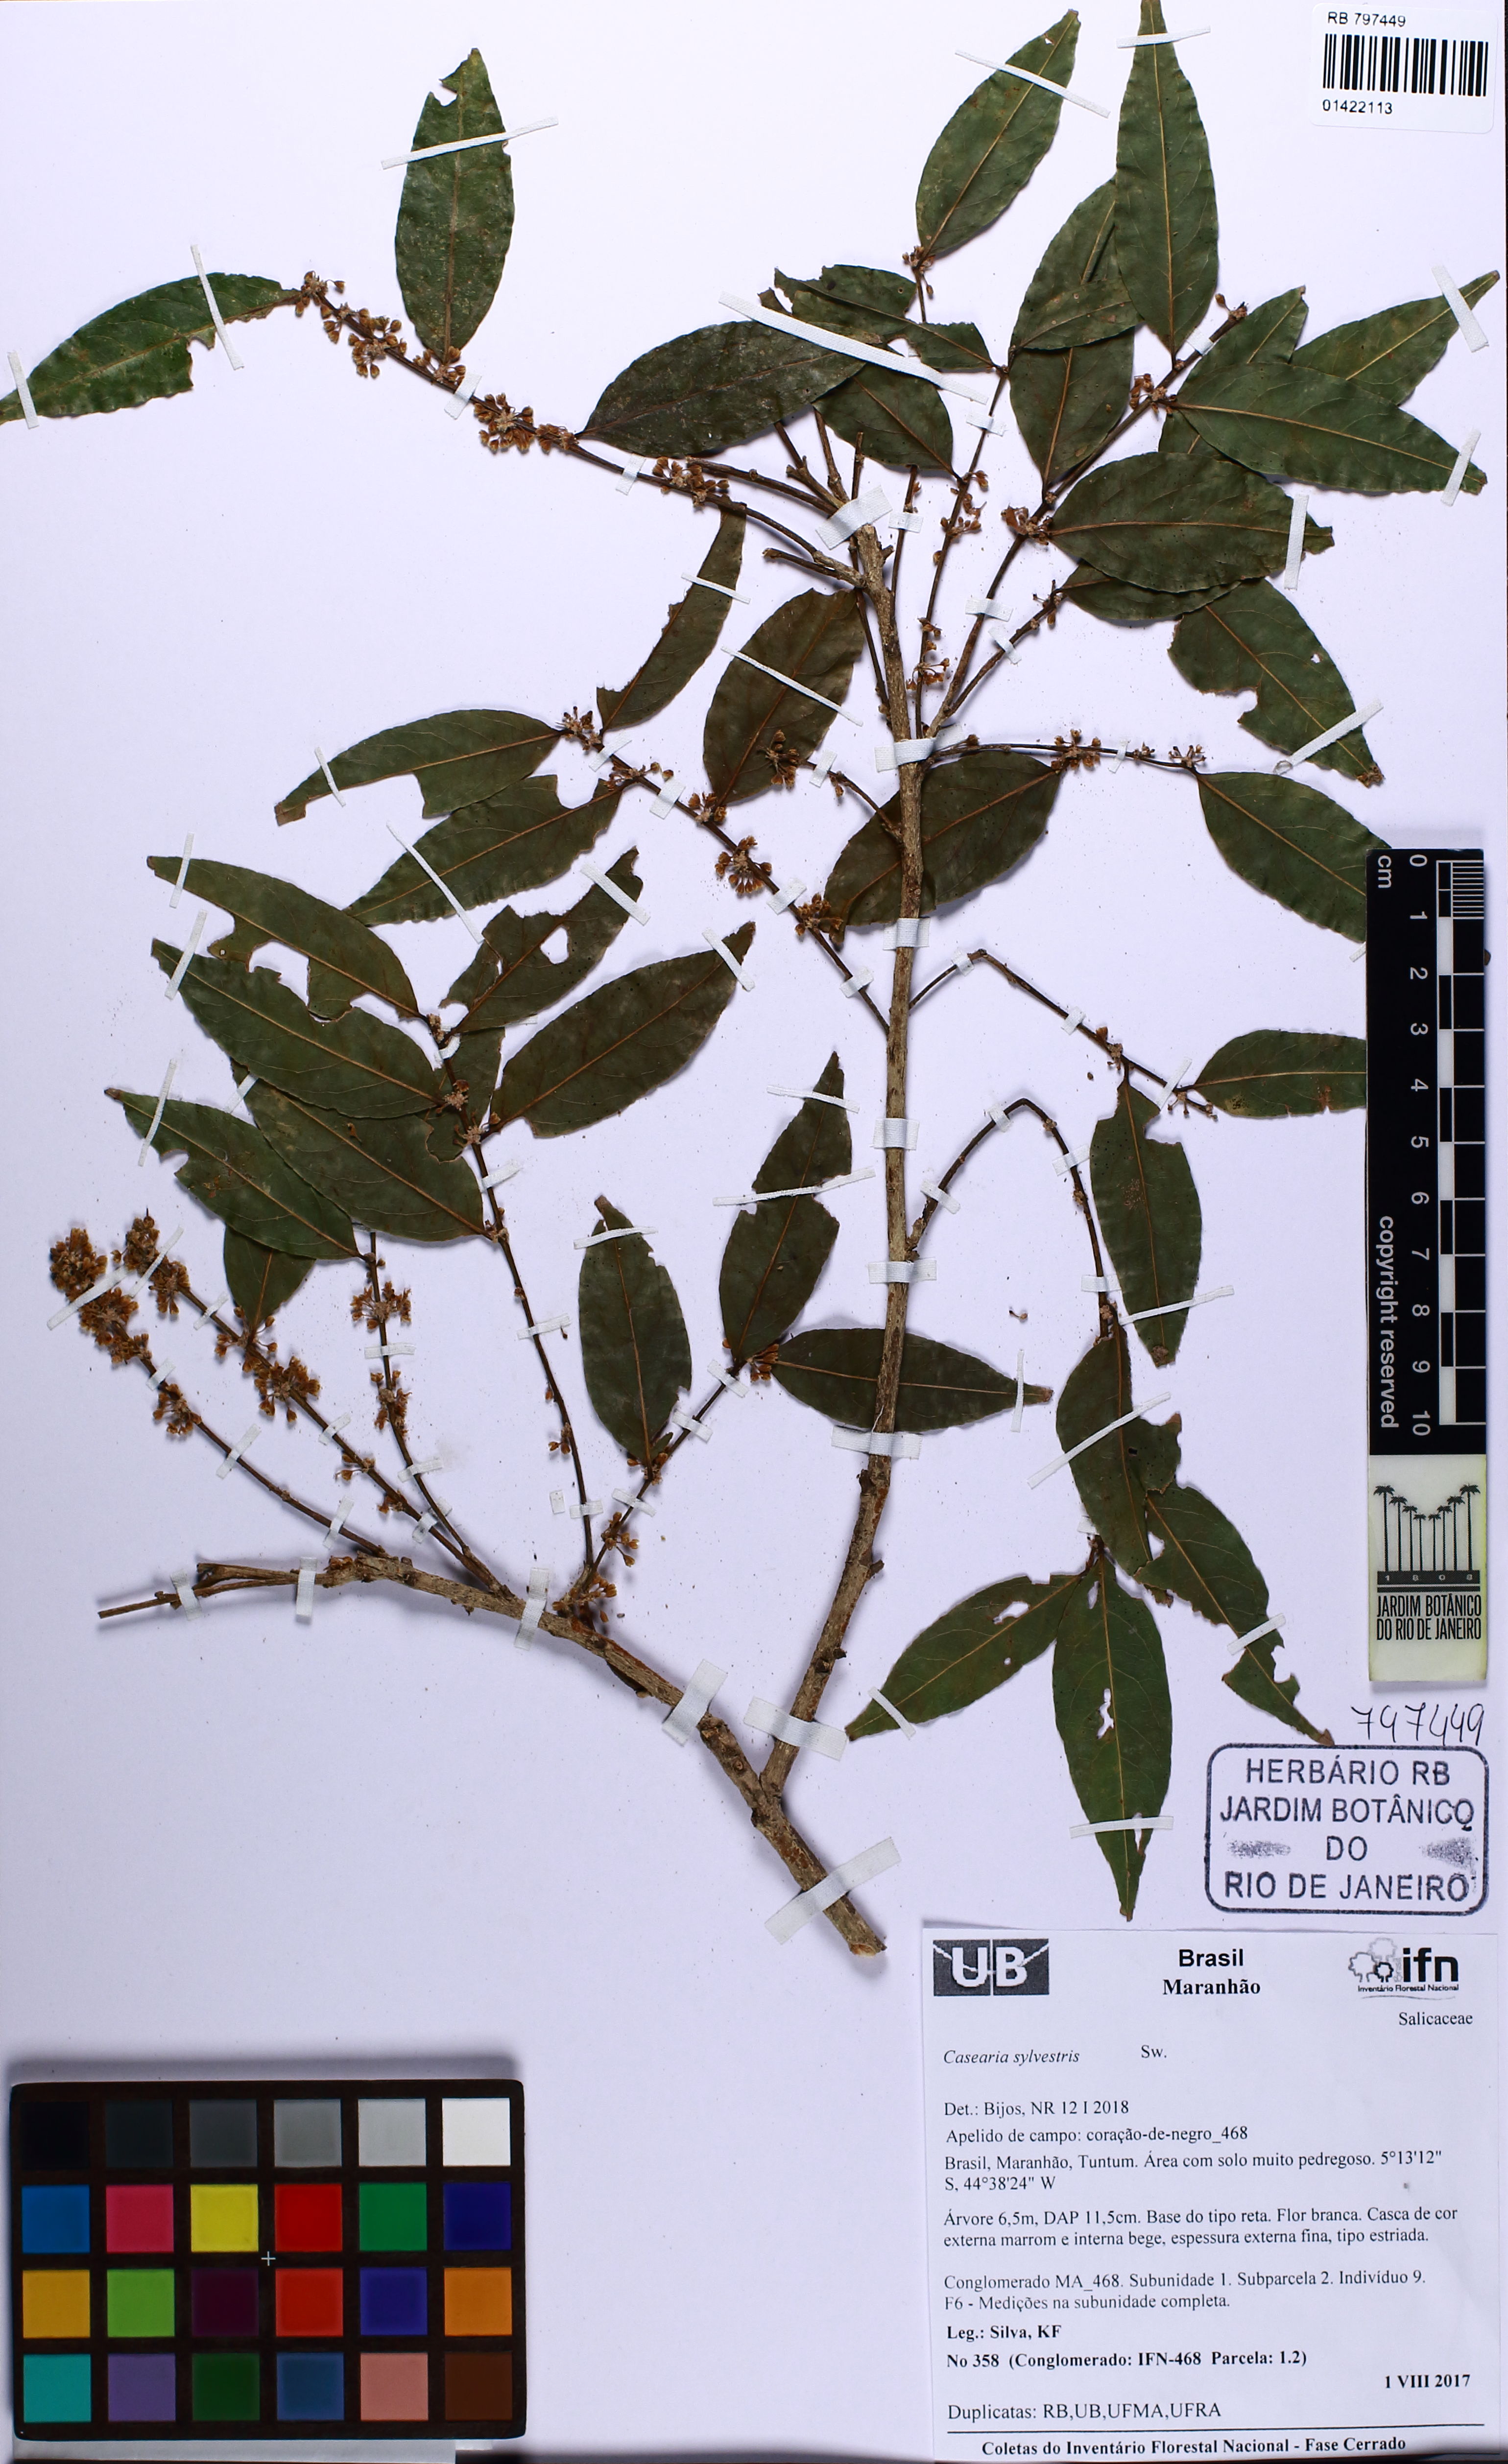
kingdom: Plantae
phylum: Tracheophyta
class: Magnoliopsida
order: Malpighiales
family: Salicaceae
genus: Casearia
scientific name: Casearia sylvestris
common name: Wild sage
